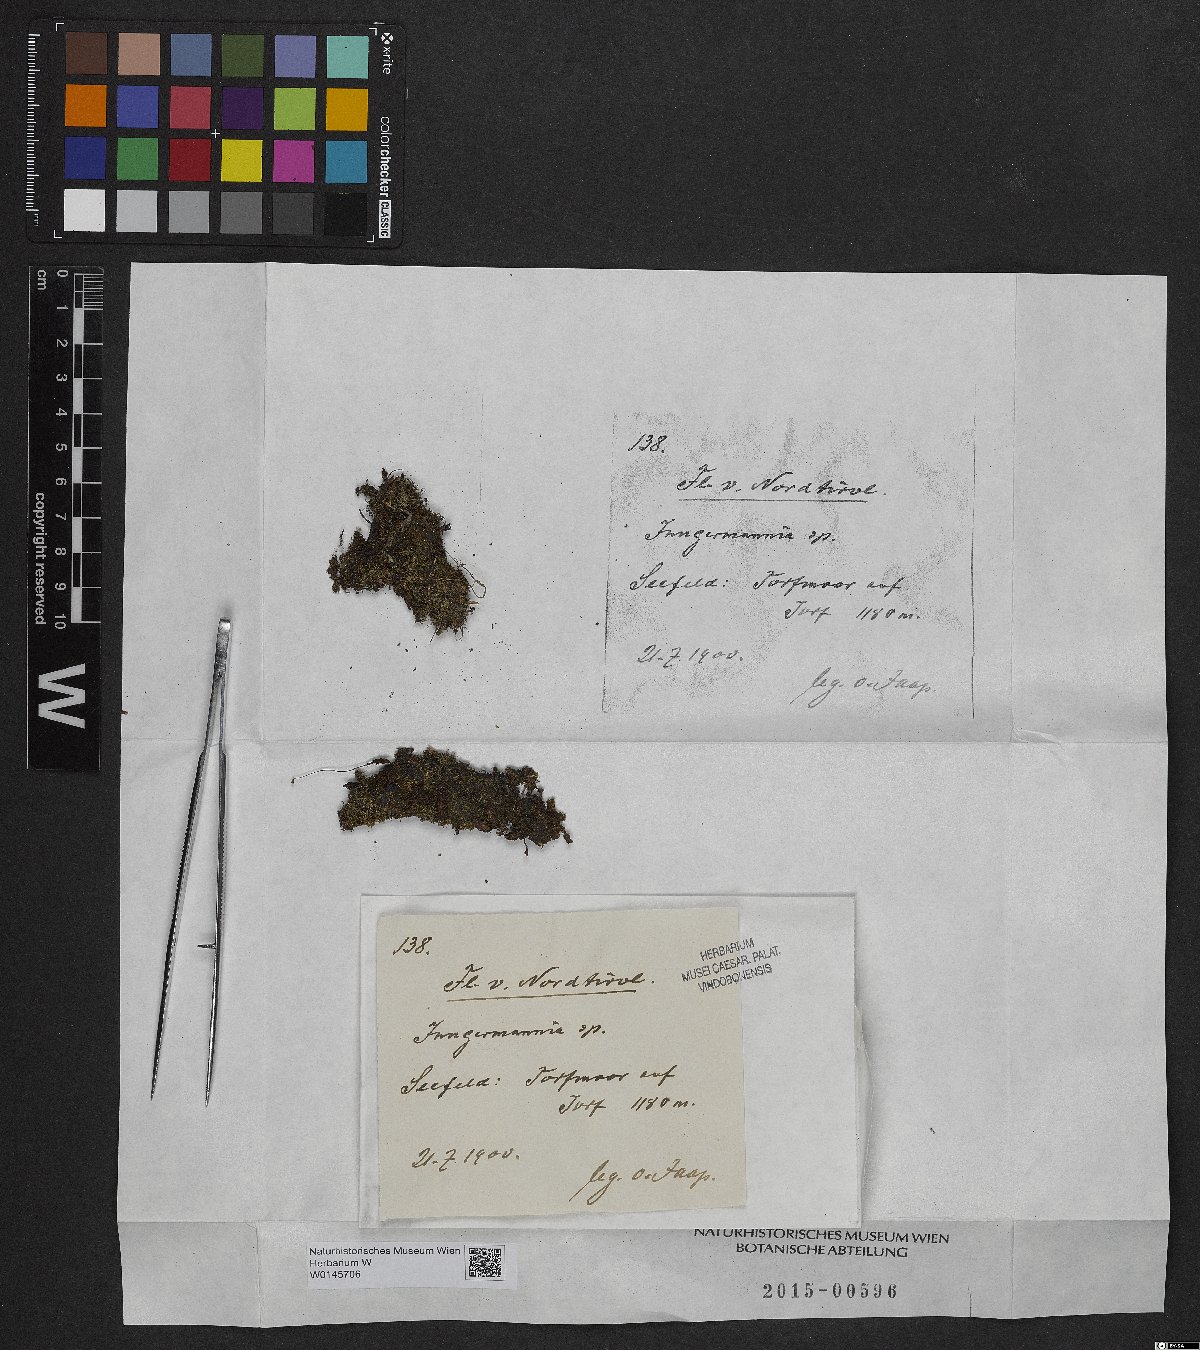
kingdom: Plantae
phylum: Marchantiophyta
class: Jungermanniopsida
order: Jungermanniales
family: Jungermanniaceae
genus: Jungermannia
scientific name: Jungermannia
